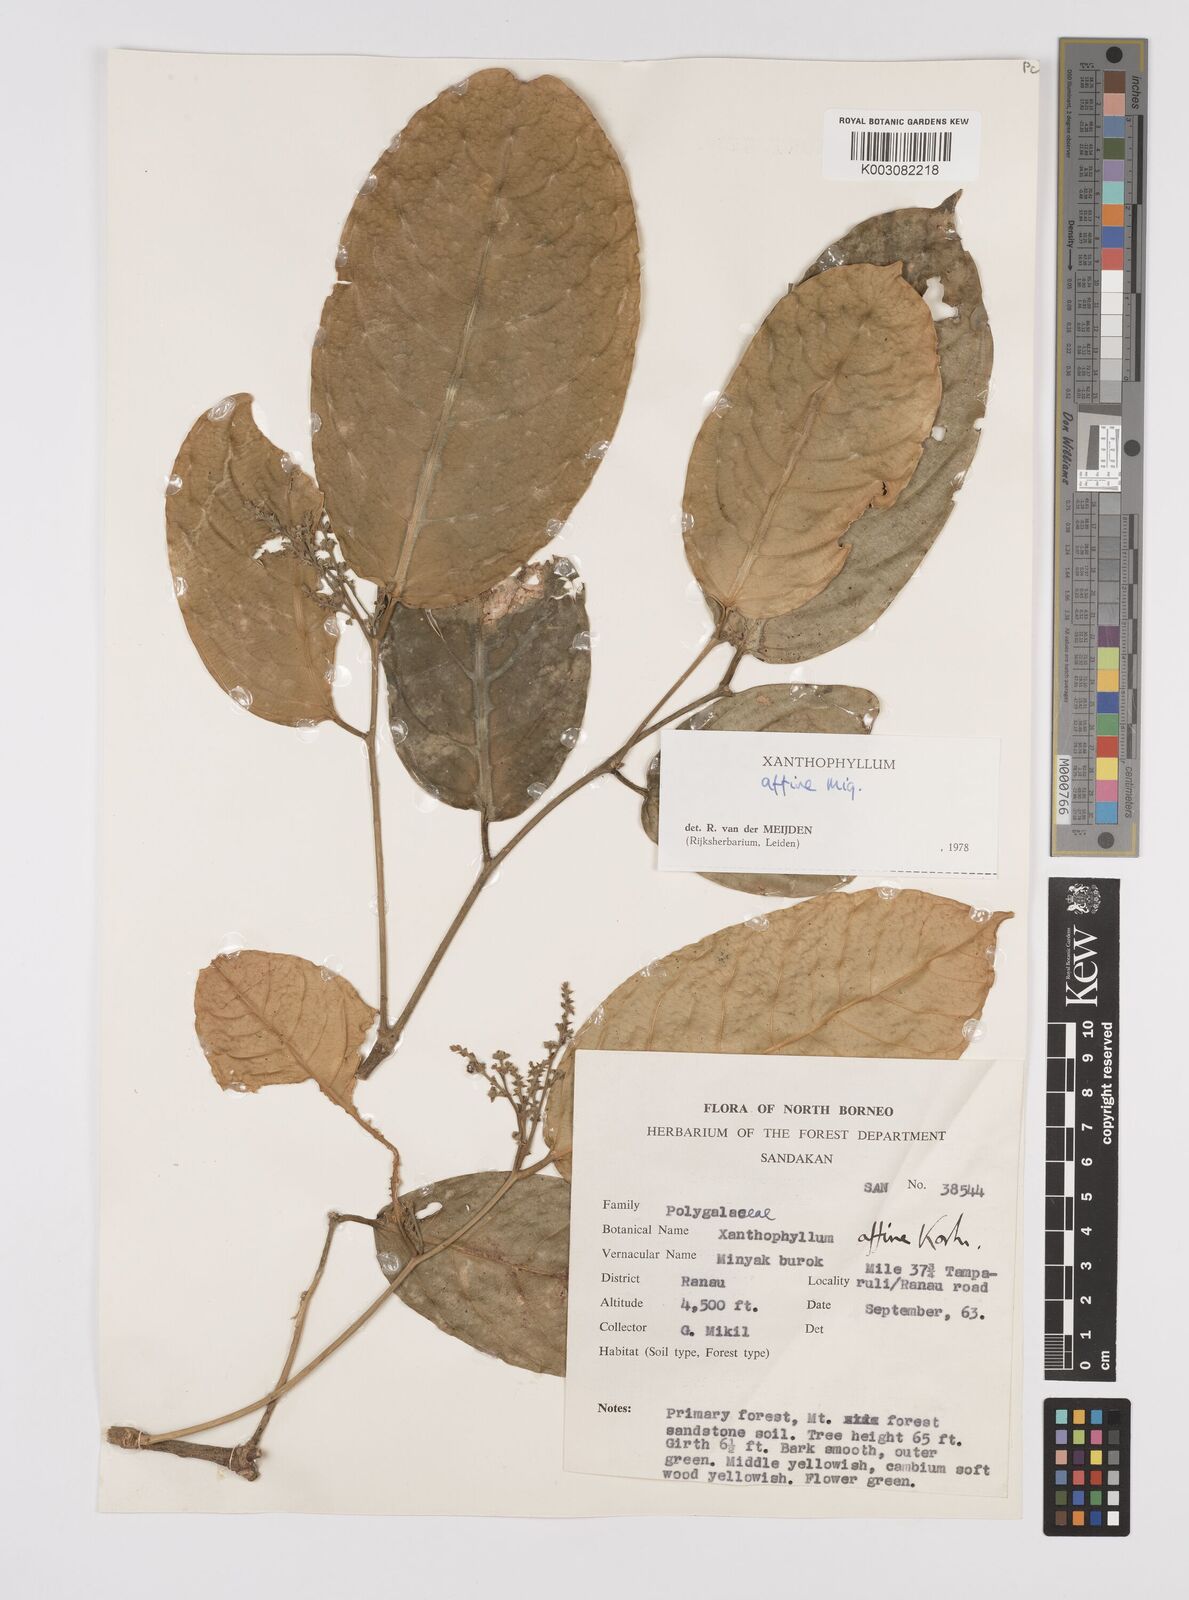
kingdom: Plantae
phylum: Tracheophyta
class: Magnoliopsida
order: Fabales
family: Polygalaceae
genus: Xanthophyllum
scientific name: Xanthophyllum flavescens
